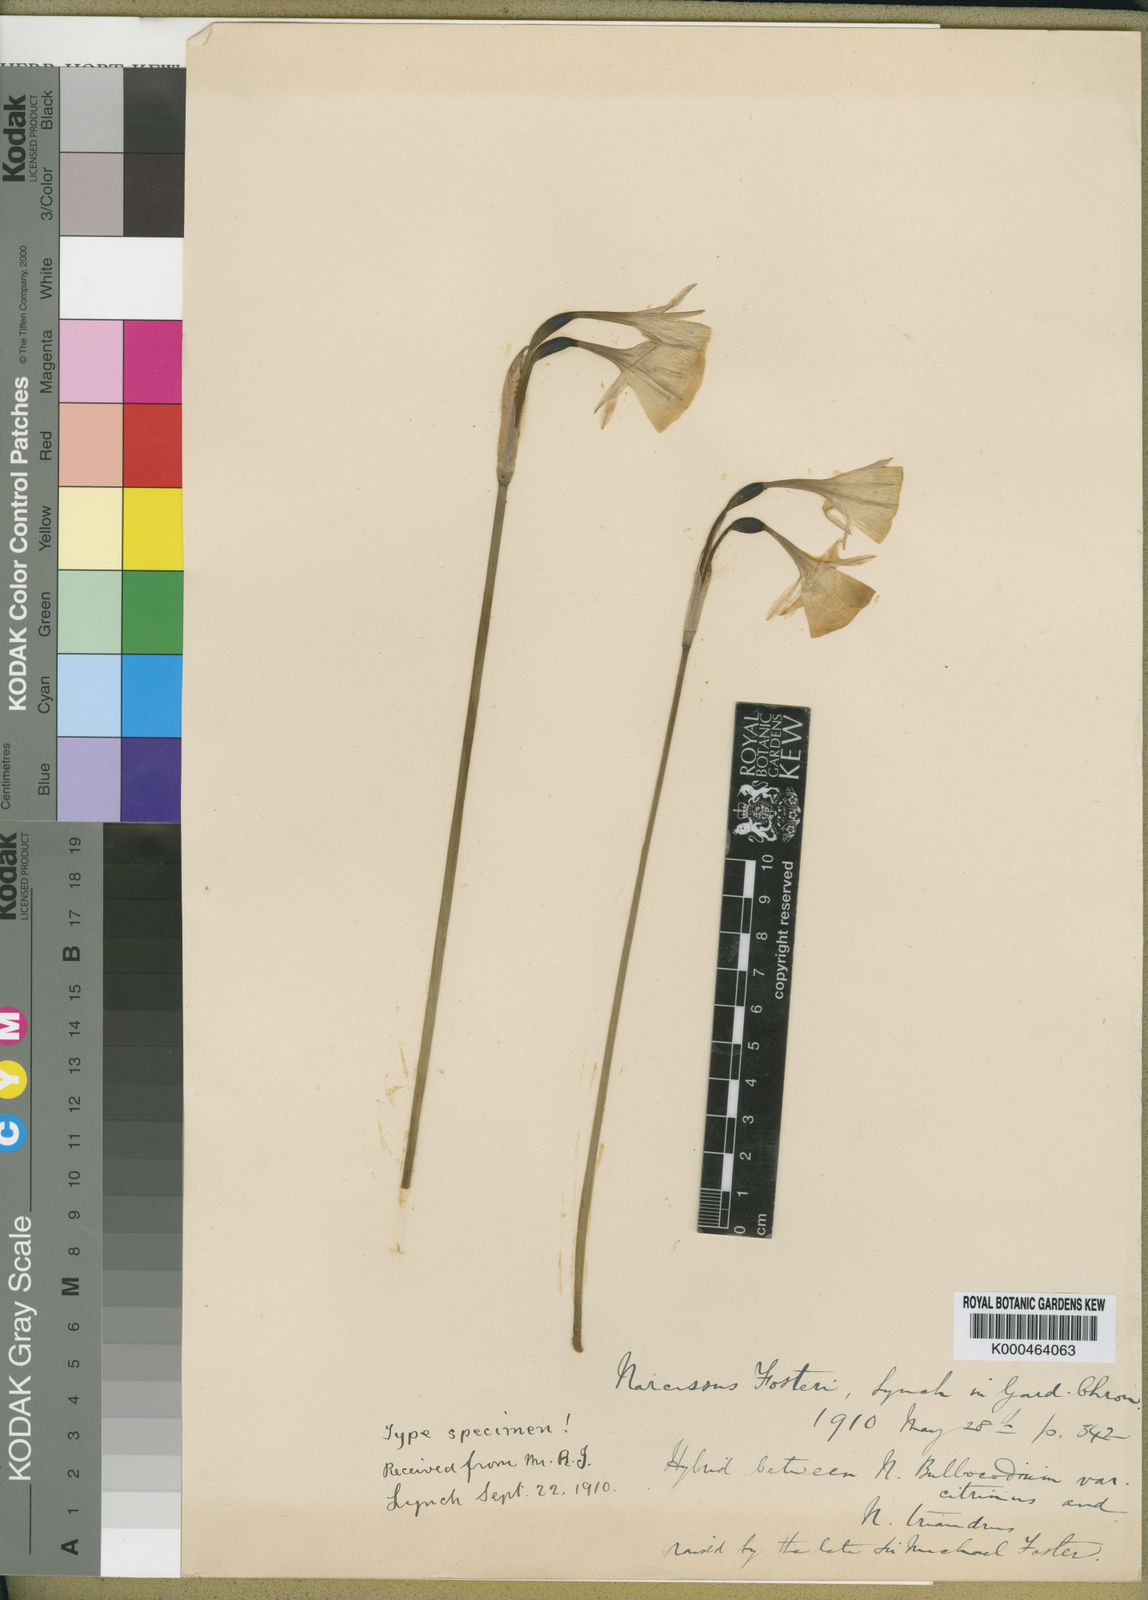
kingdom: Plantae
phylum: Tracheophyta
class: Liliopsida
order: Asparagales
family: Amaryllidaceae
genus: Narcissus
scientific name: Narcissus fosteri
